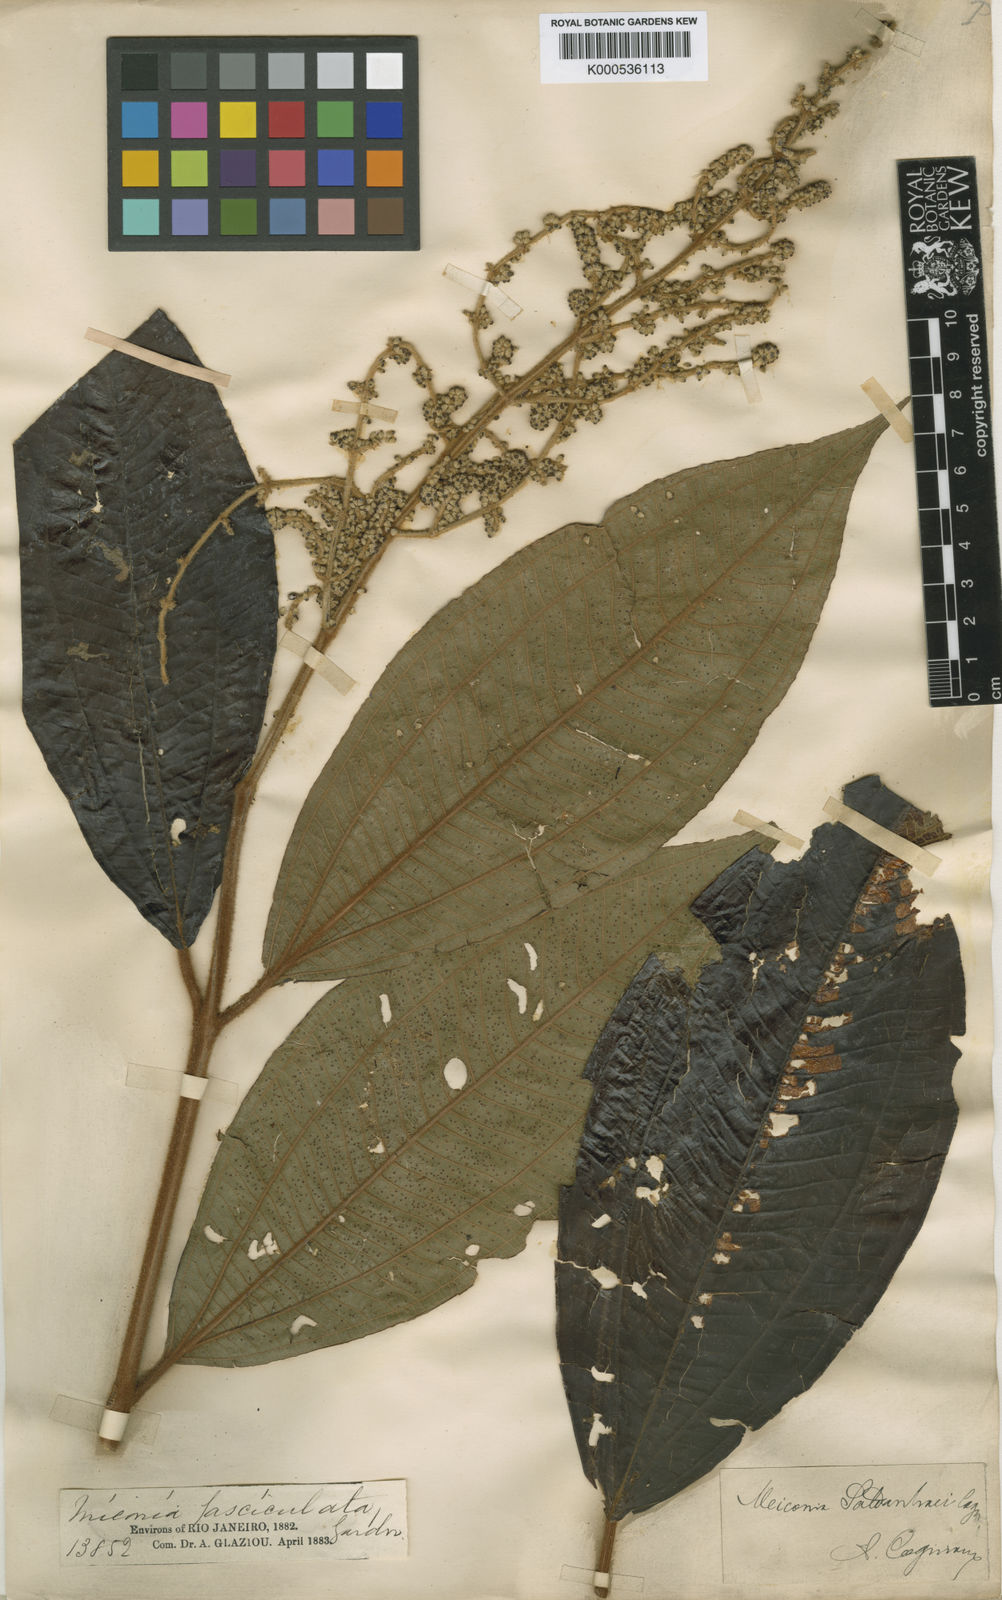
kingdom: Plantae
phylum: Tracheophyta
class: Magnoliopsida
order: Myrtales
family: Melastomataceae
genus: Miconia
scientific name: Miconia fasciculata
